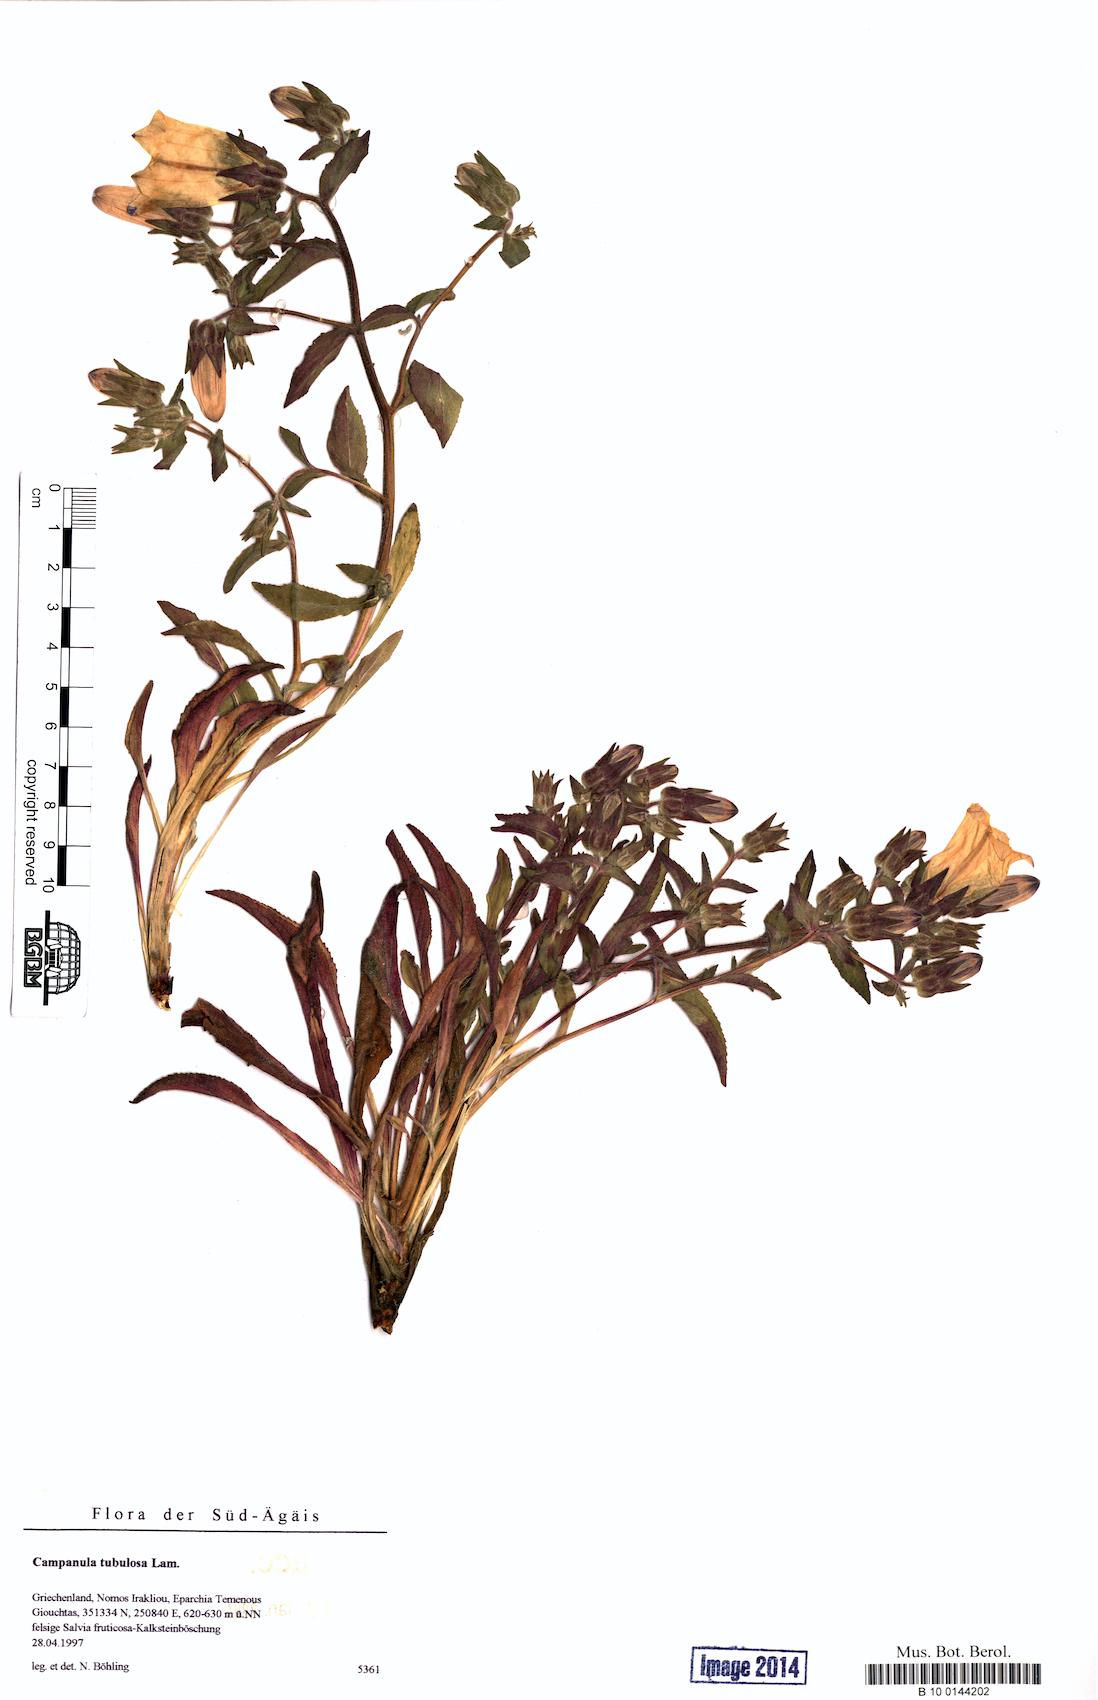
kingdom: Plantae
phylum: Tracheophyta
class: Magnoliopsida
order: Asterales
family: Campanulaceae
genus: Campanula
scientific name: Campanula tubulosa
